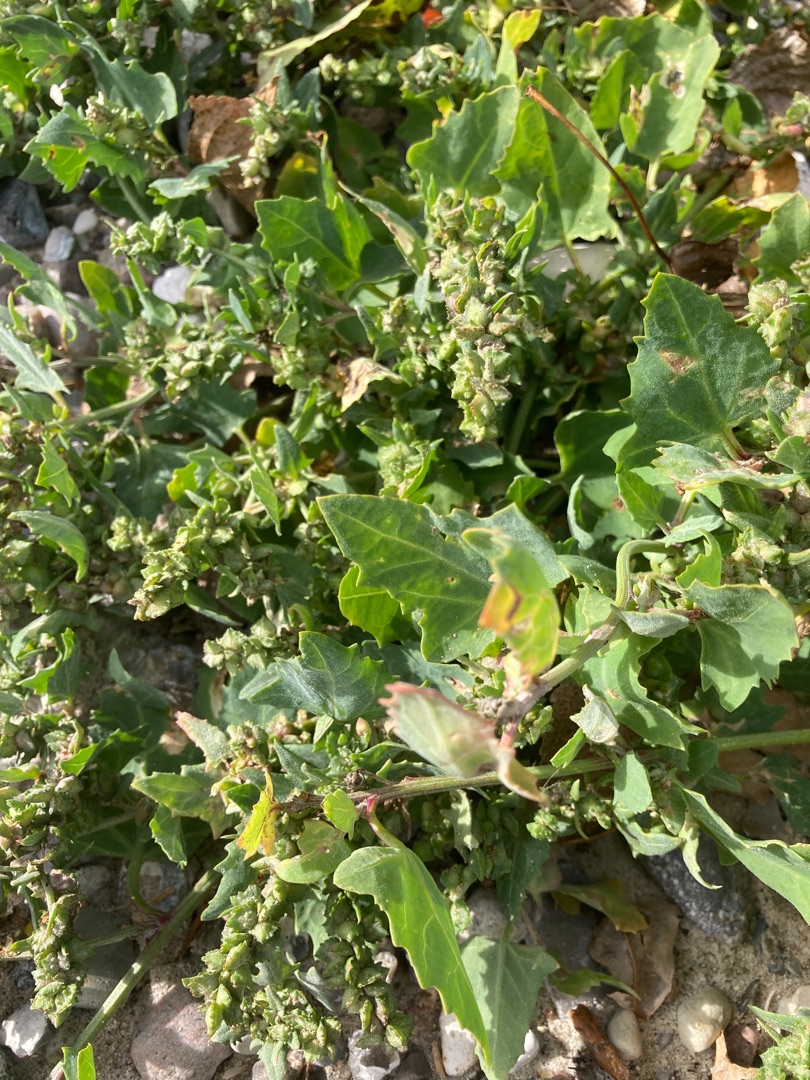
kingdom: Plantae
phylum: Tracheophyta
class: Magnoliopsida
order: Caryophyllales
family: Amaranthaceae
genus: Atriplex
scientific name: Atriplex prostrata
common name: Spyd-mælde
